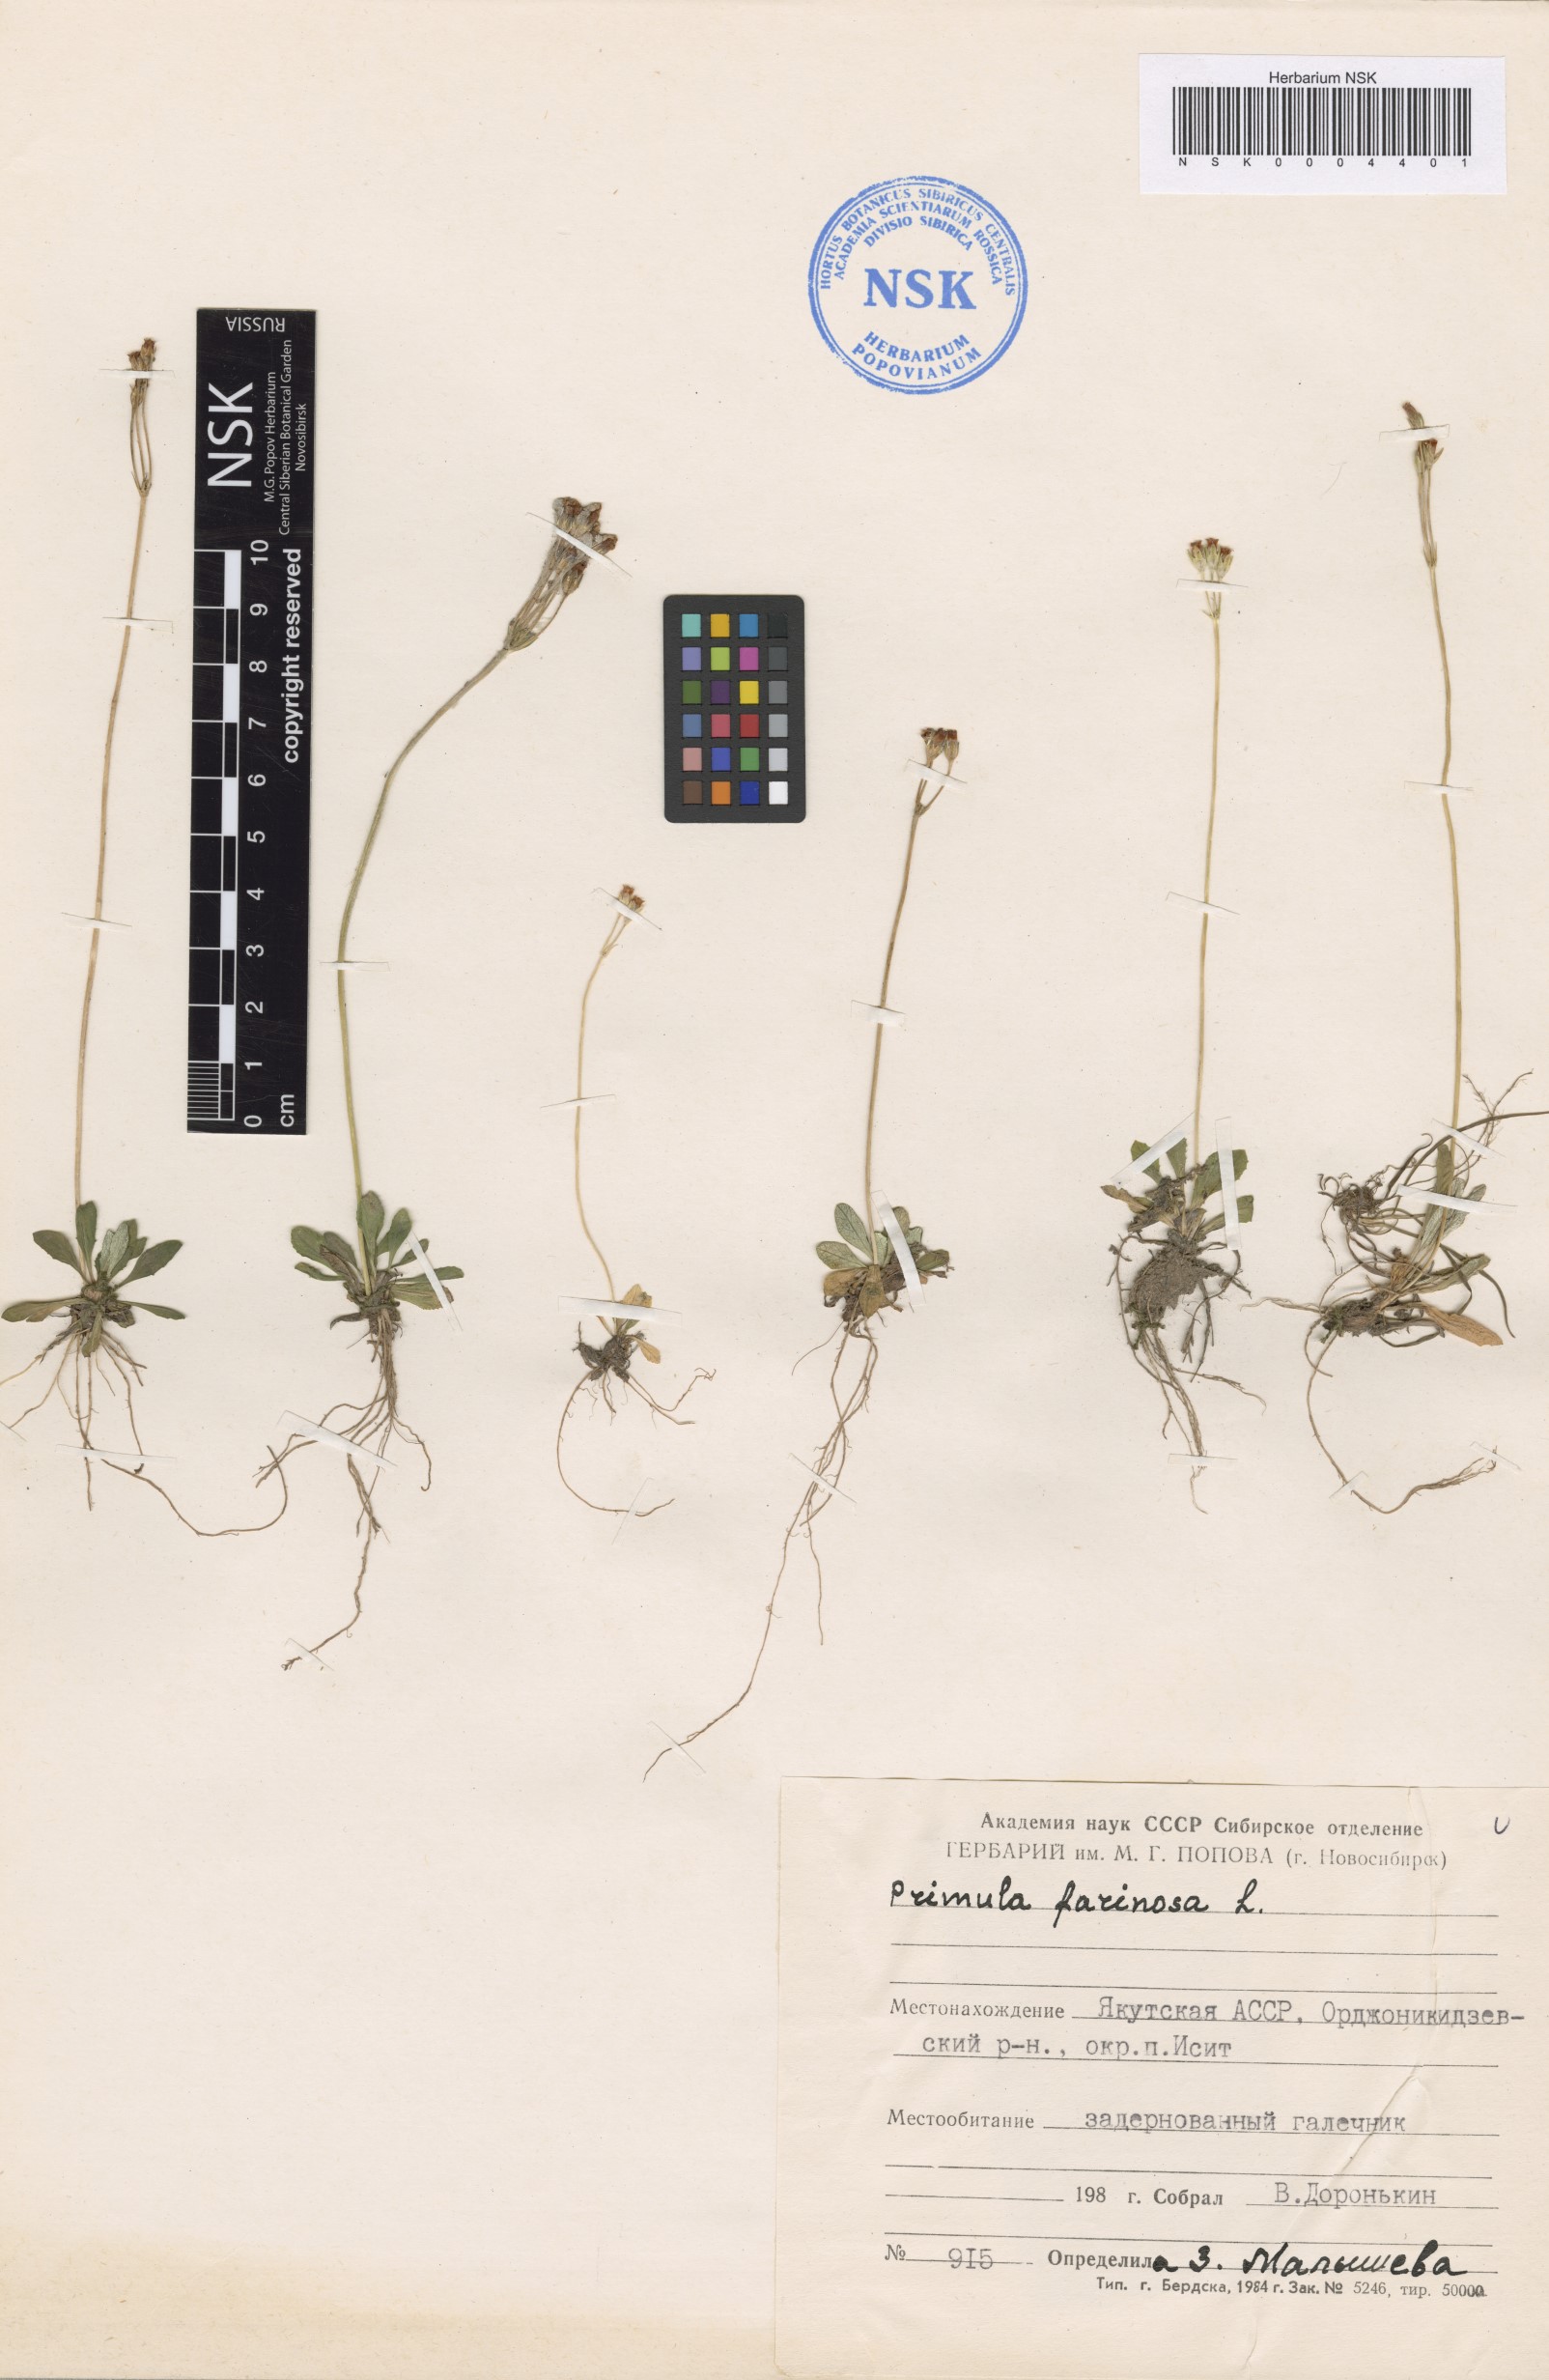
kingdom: Plantae
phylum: Tracheophyta
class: Magnoliopsida
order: Ericales
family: Primulaceae
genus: Primula
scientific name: Primula farinosa
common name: Bird's-eye primrose
